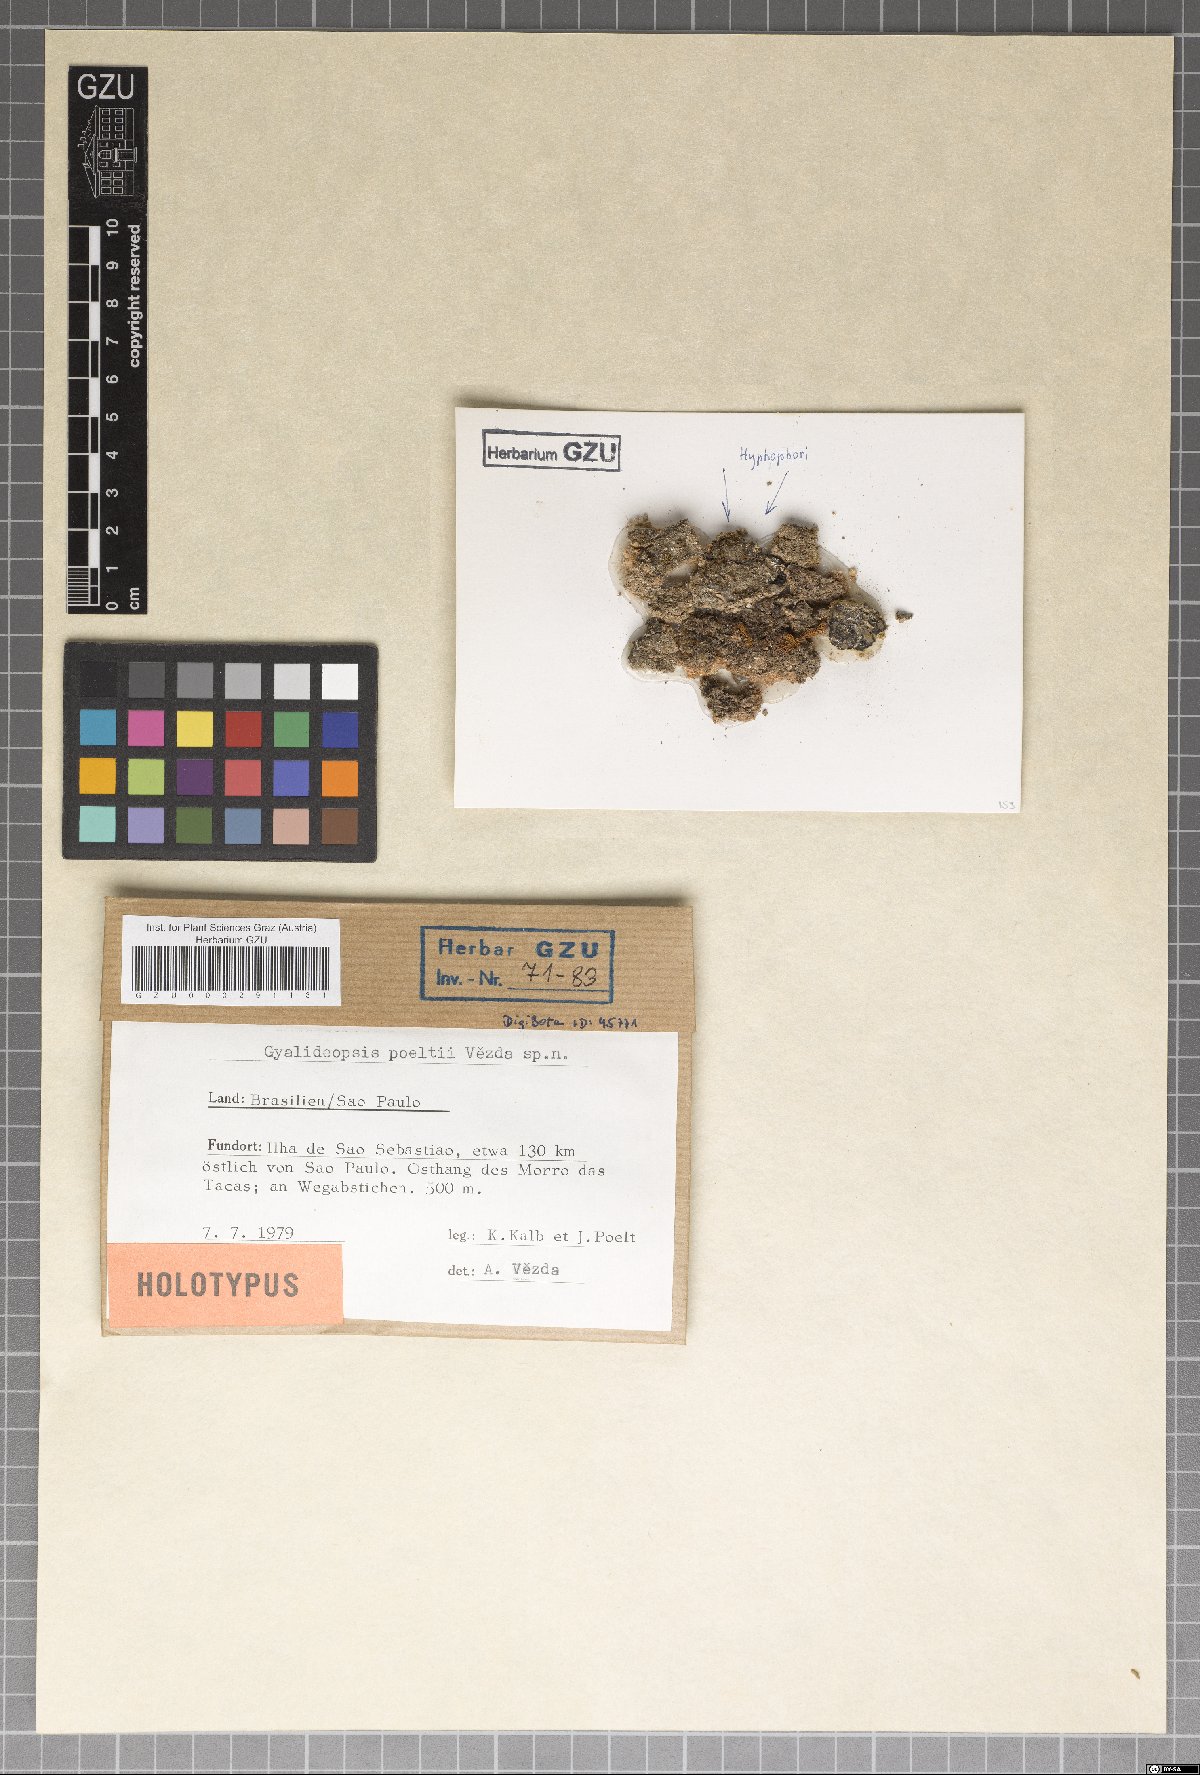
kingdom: Fungi
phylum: Ascomycota
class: Lecanoromycetes
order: Ostropales
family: Gomphillaceae
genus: Lithogyalideopsis
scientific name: Lithogyalideopsis poeltii
